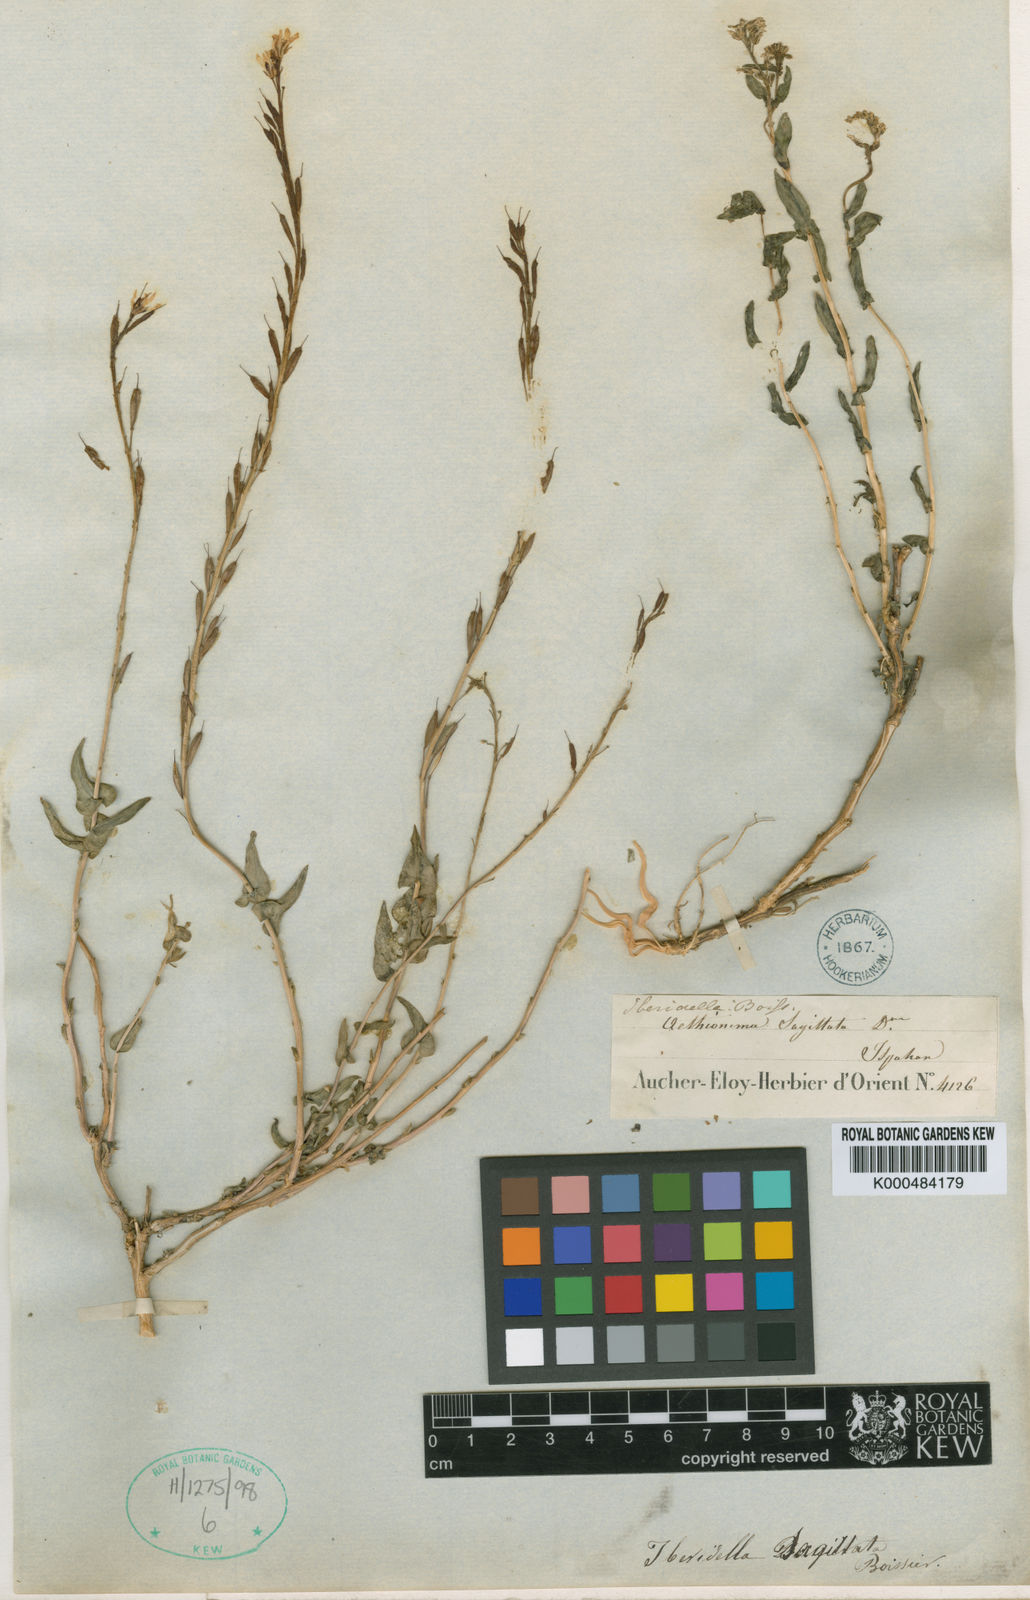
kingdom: Plantae
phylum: Tracheophyta
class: Magnoliopsida
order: Brassicales
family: Brassicaceae
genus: Noccaea
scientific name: Noccaea trinervia
